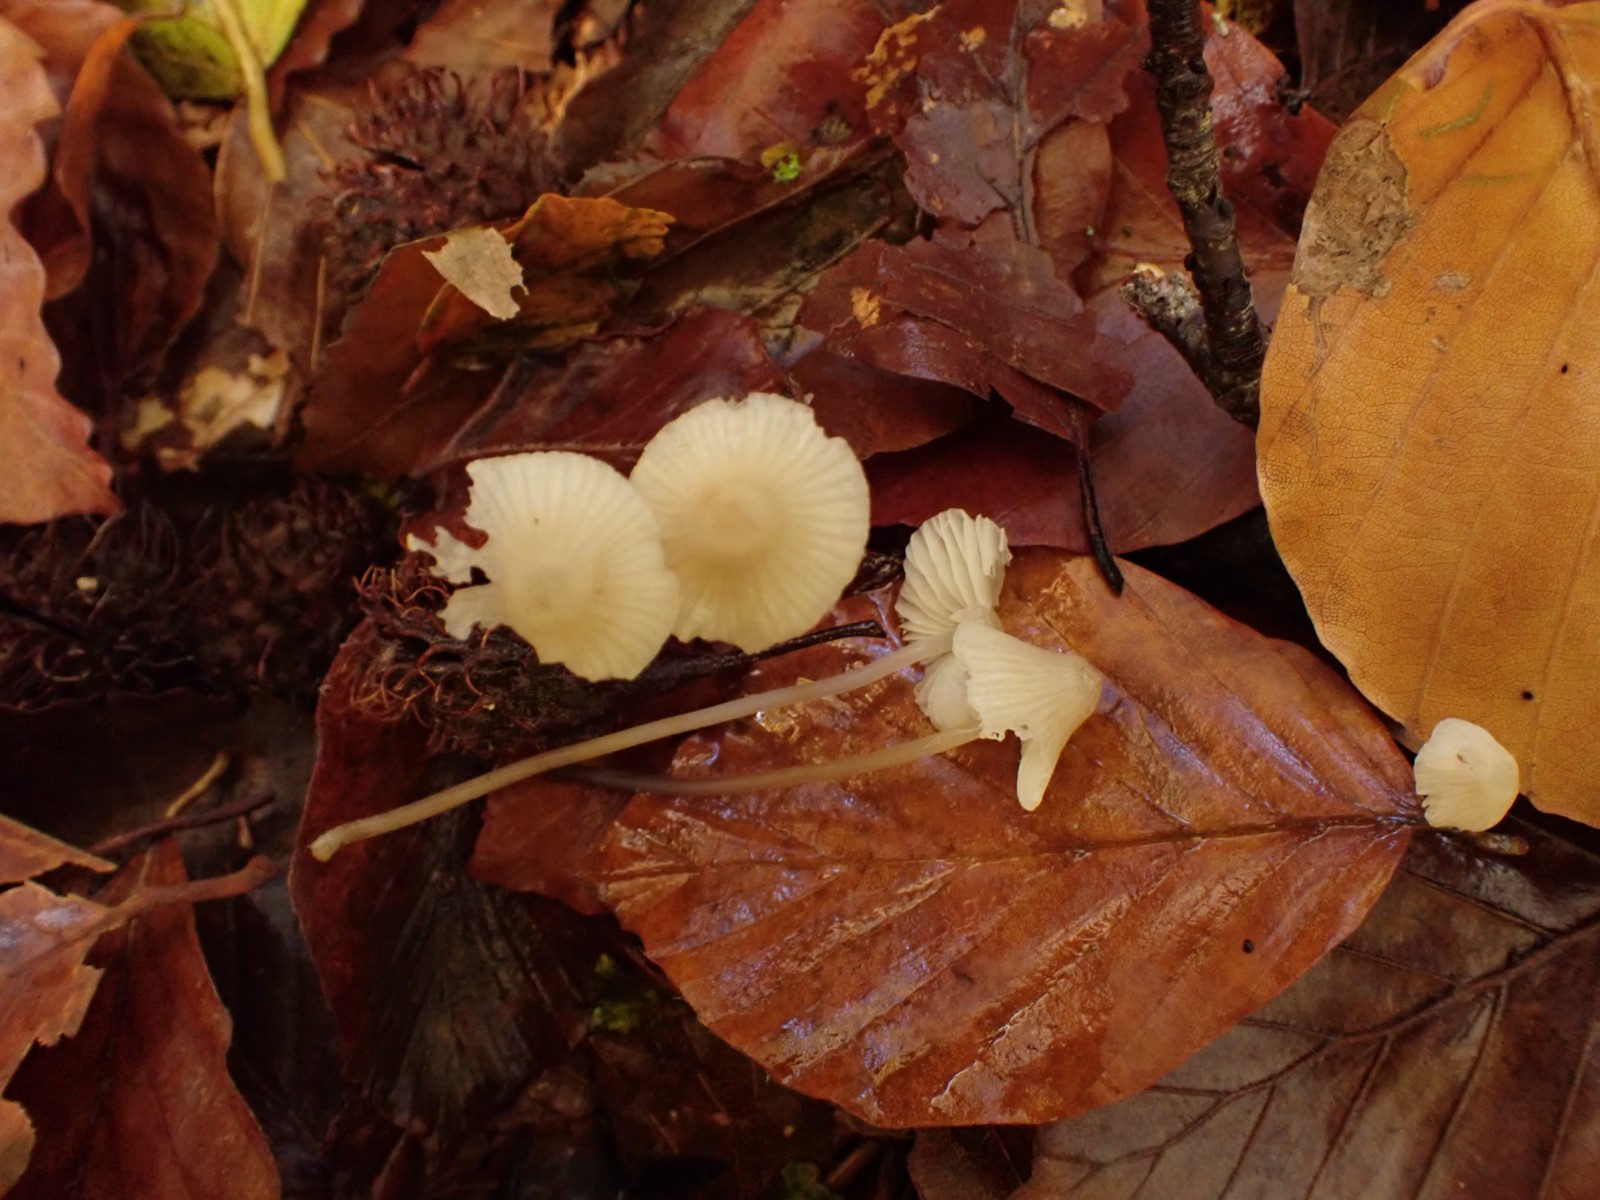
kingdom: Fungi
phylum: Basidiomycota
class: Agaricomycetes
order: Agaricales
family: Mycenaceae
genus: Mycena
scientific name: Mycena flavescens
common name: grågul huesvamp
